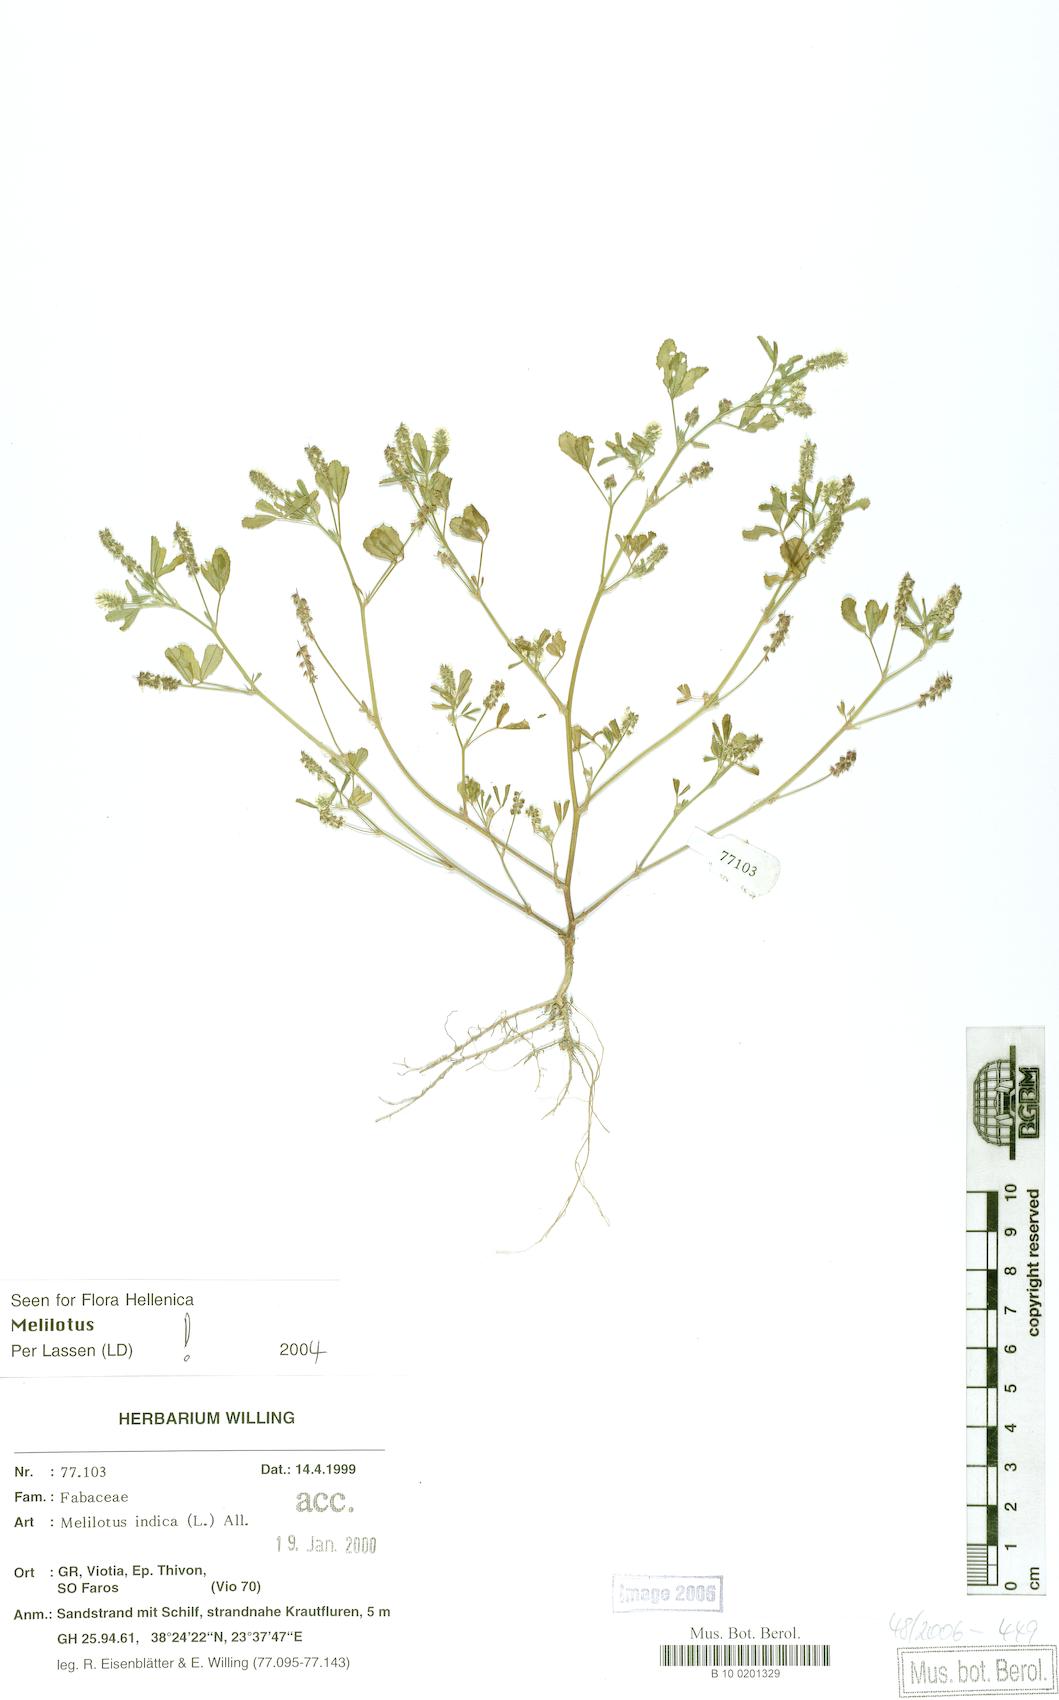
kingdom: Plantae
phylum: Tracheophyta
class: Magnoliopsida
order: Fabales
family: Fabaceae
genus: Melilotus
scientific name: Melilotus indicus
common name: Small melilot
